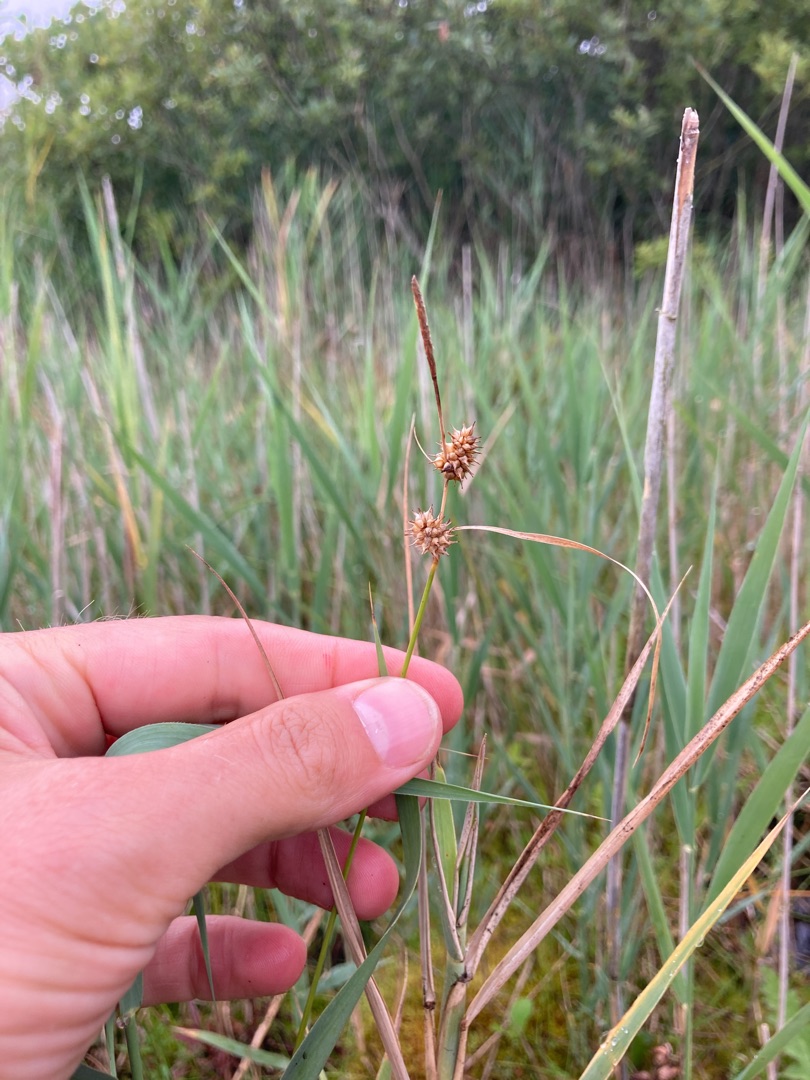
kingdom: Plantae
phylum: Tracheophyta
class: Liliopsida
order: Poales
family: Cyperaceae
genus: Carex
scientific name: Carex lepidocarpa
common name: Krognæb-star
